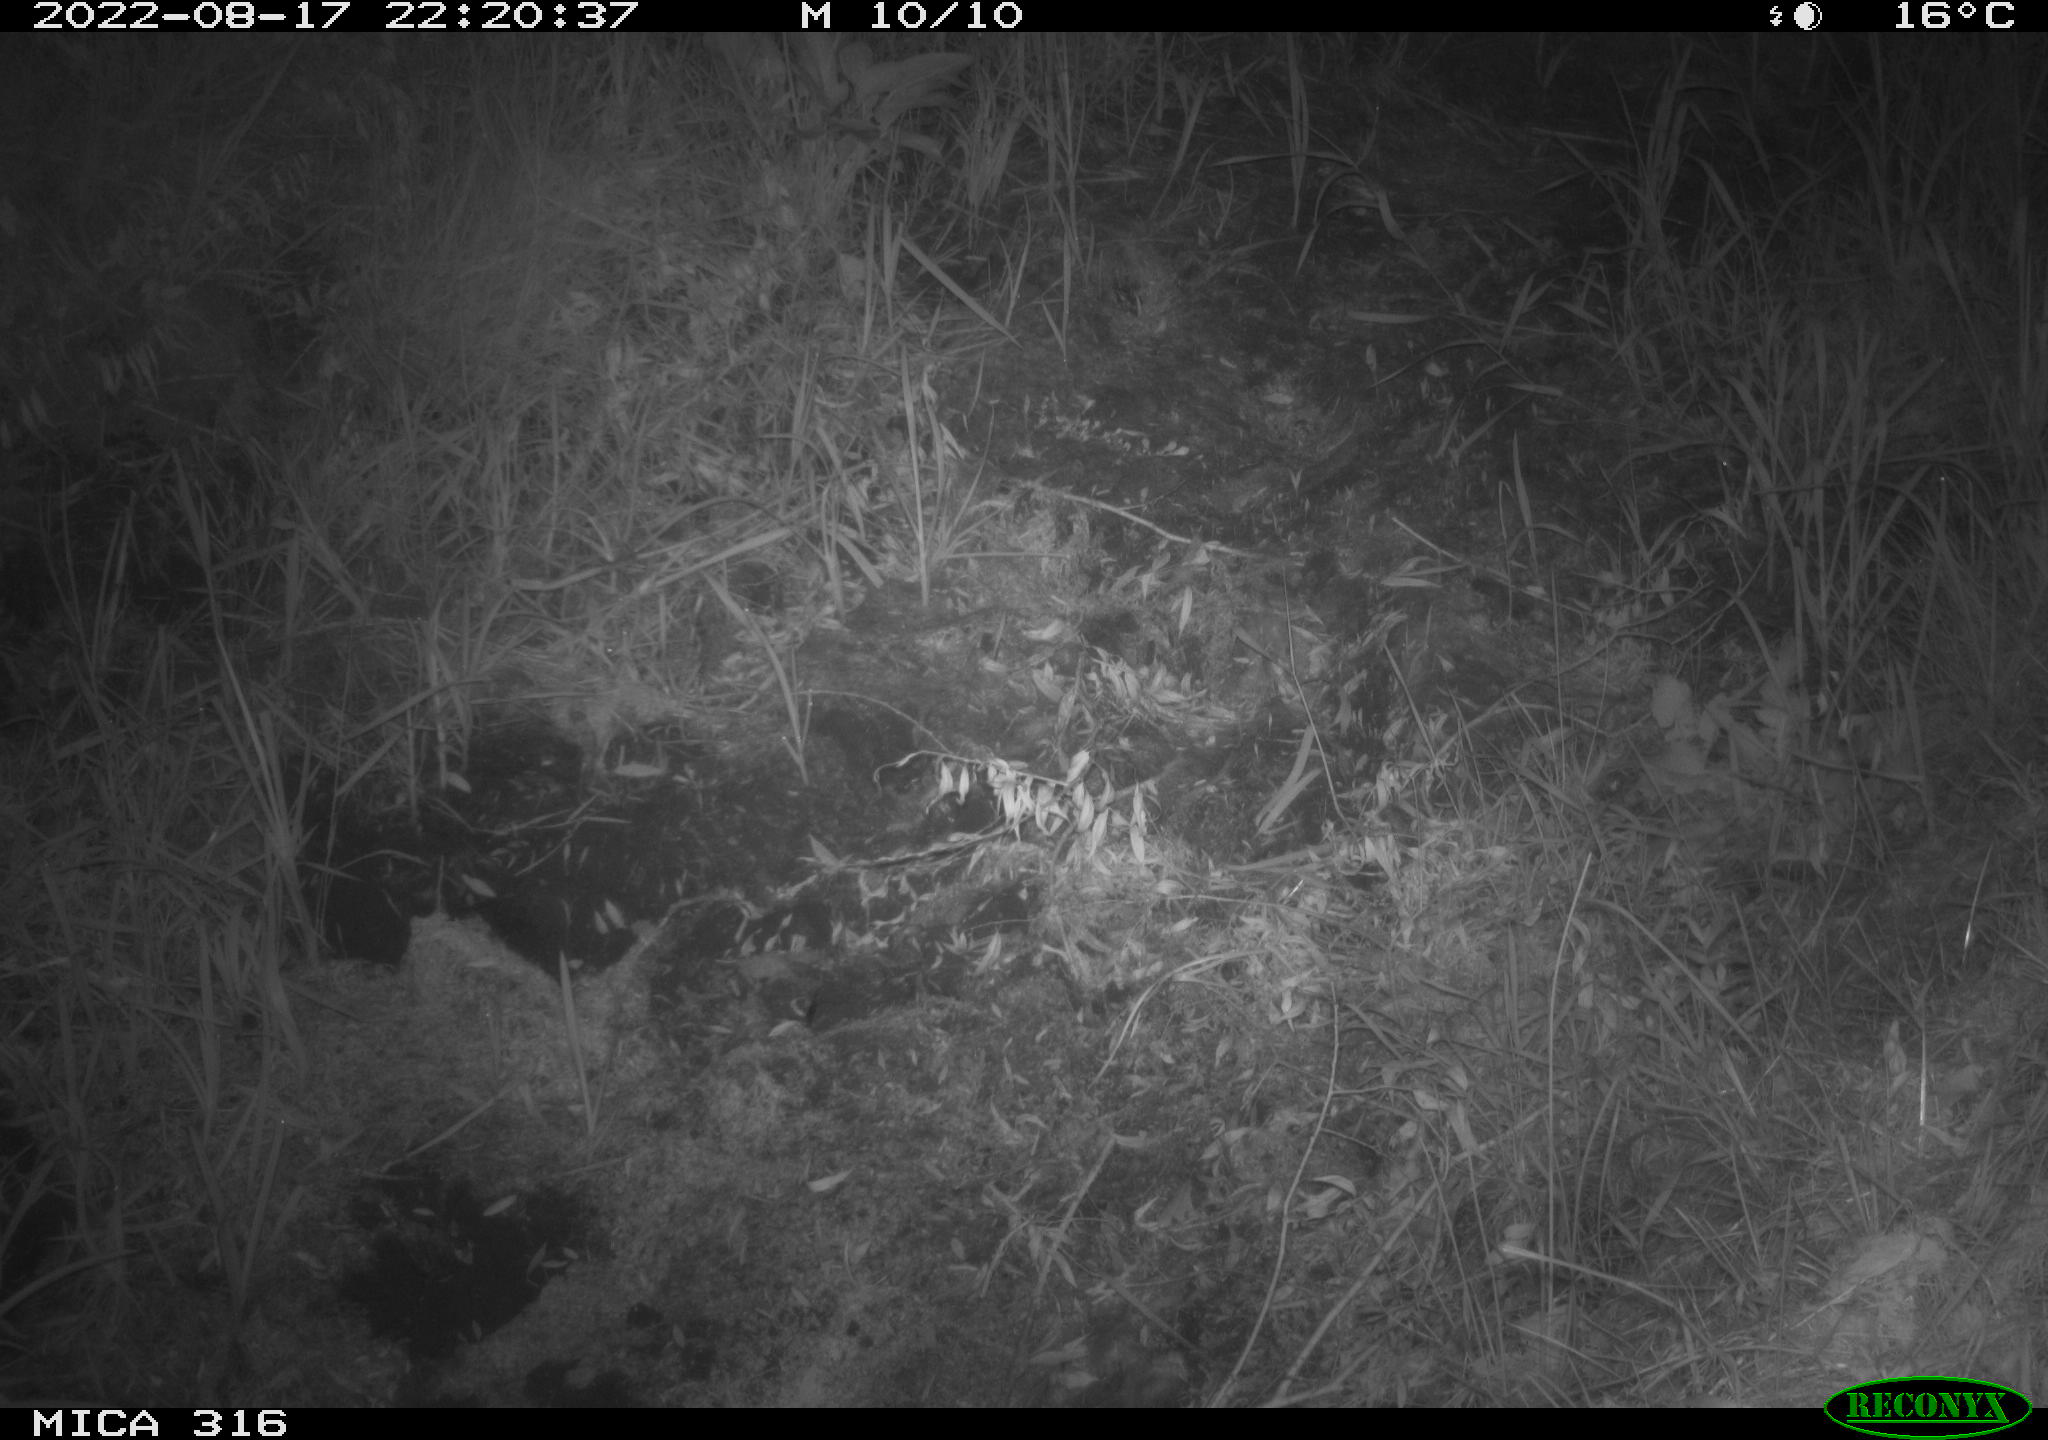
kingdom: Animalia
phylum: Chordata
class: Mammalia
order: Carnivora
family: Canidae
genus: Vulpes
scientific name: Vulpes vulpes
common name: Red fox
